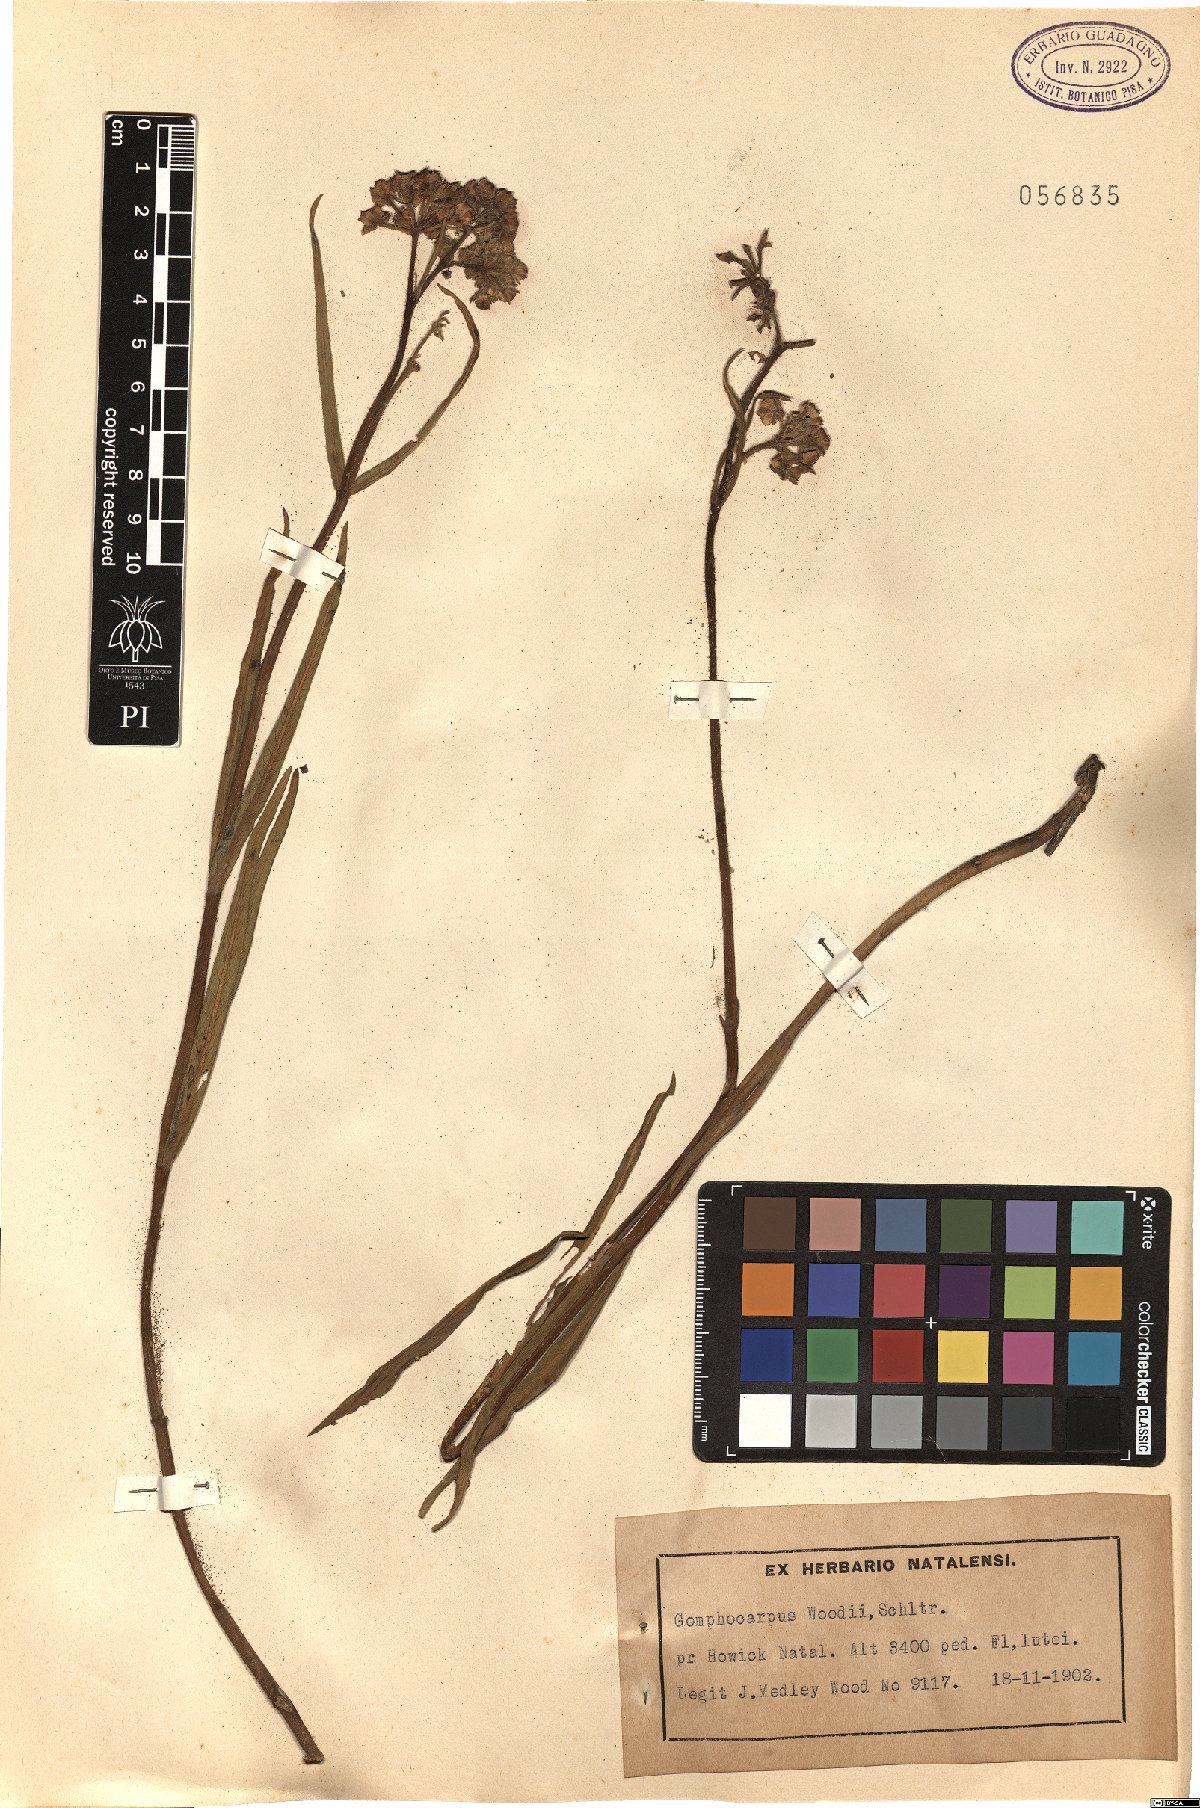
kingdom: Plantae
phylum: Tracheophyta
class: Magnoliopsida
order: Gentianales
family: Apocynaceae
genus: Asclepias
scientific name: Asclepias woodii
